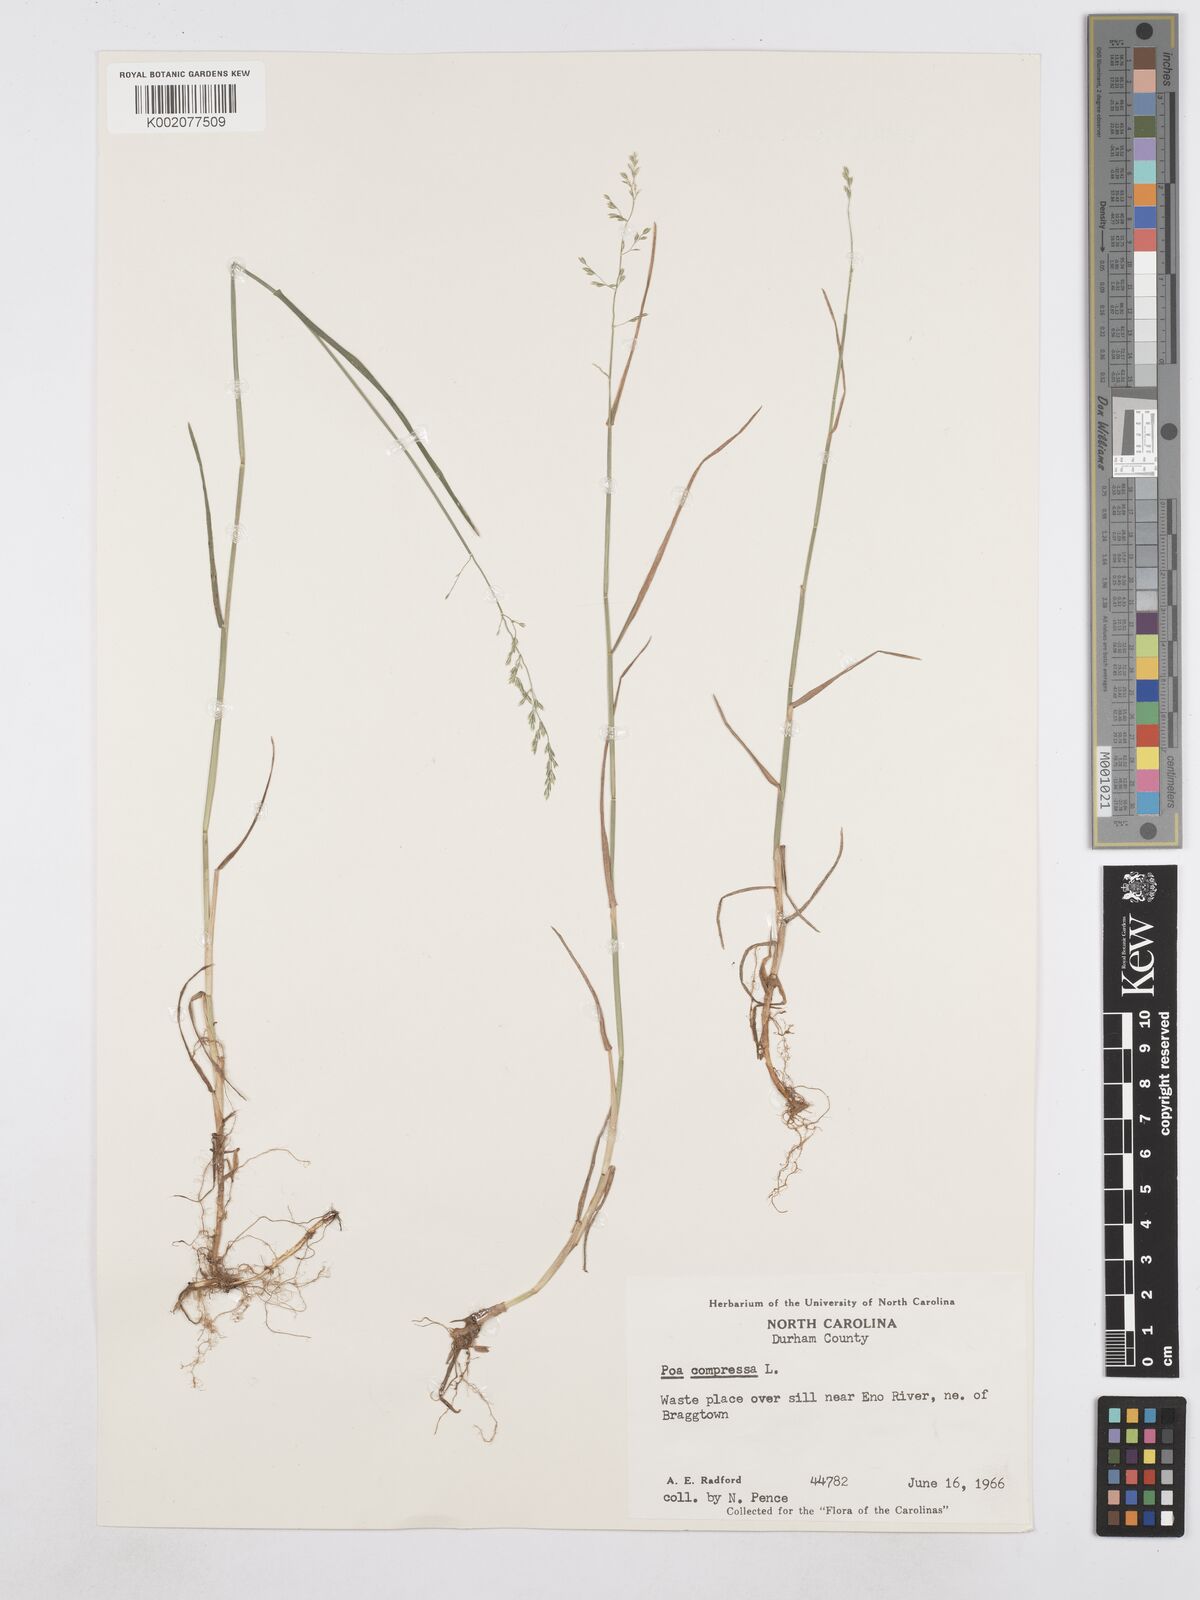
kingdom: Plantae
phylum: Tracheophyta
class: Liliopsida
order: Poales
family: Poaceae
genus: Poa
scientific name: Poa compressa
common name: Canada bluegrass
